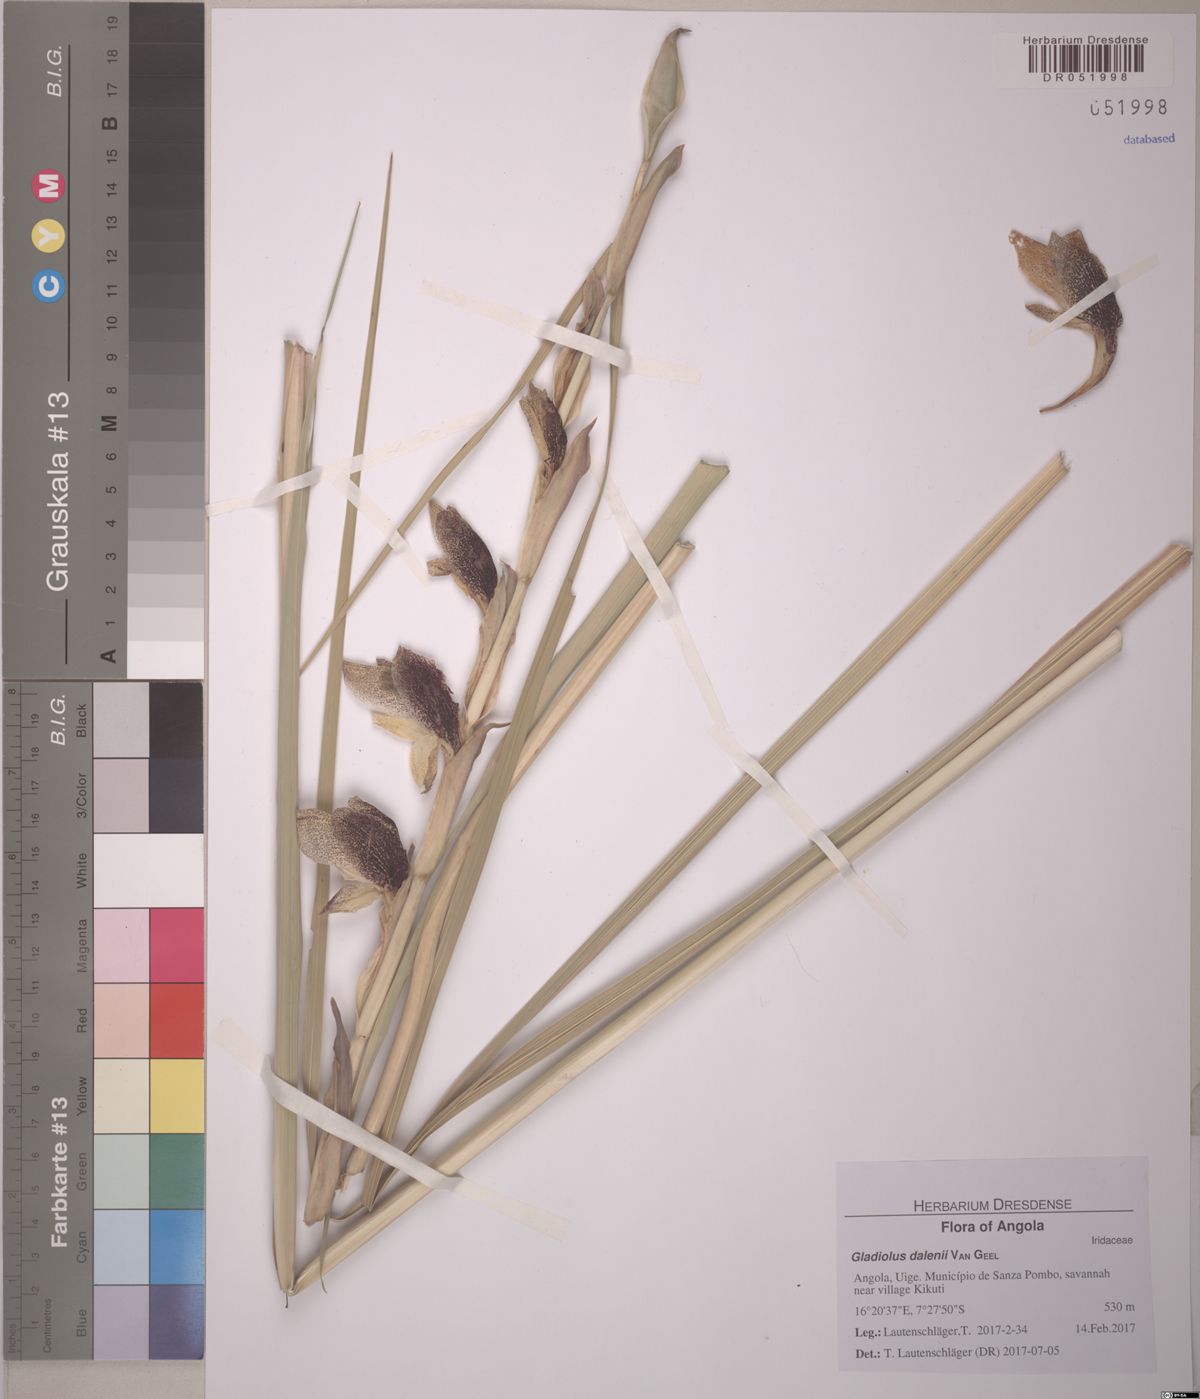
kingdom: Plantae
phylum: Tracheophyta
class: Liliopsida
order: Asparagales
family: Iridaceae
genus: Gladiolus
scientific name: Gladiolus dalenii
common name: Cornflag
